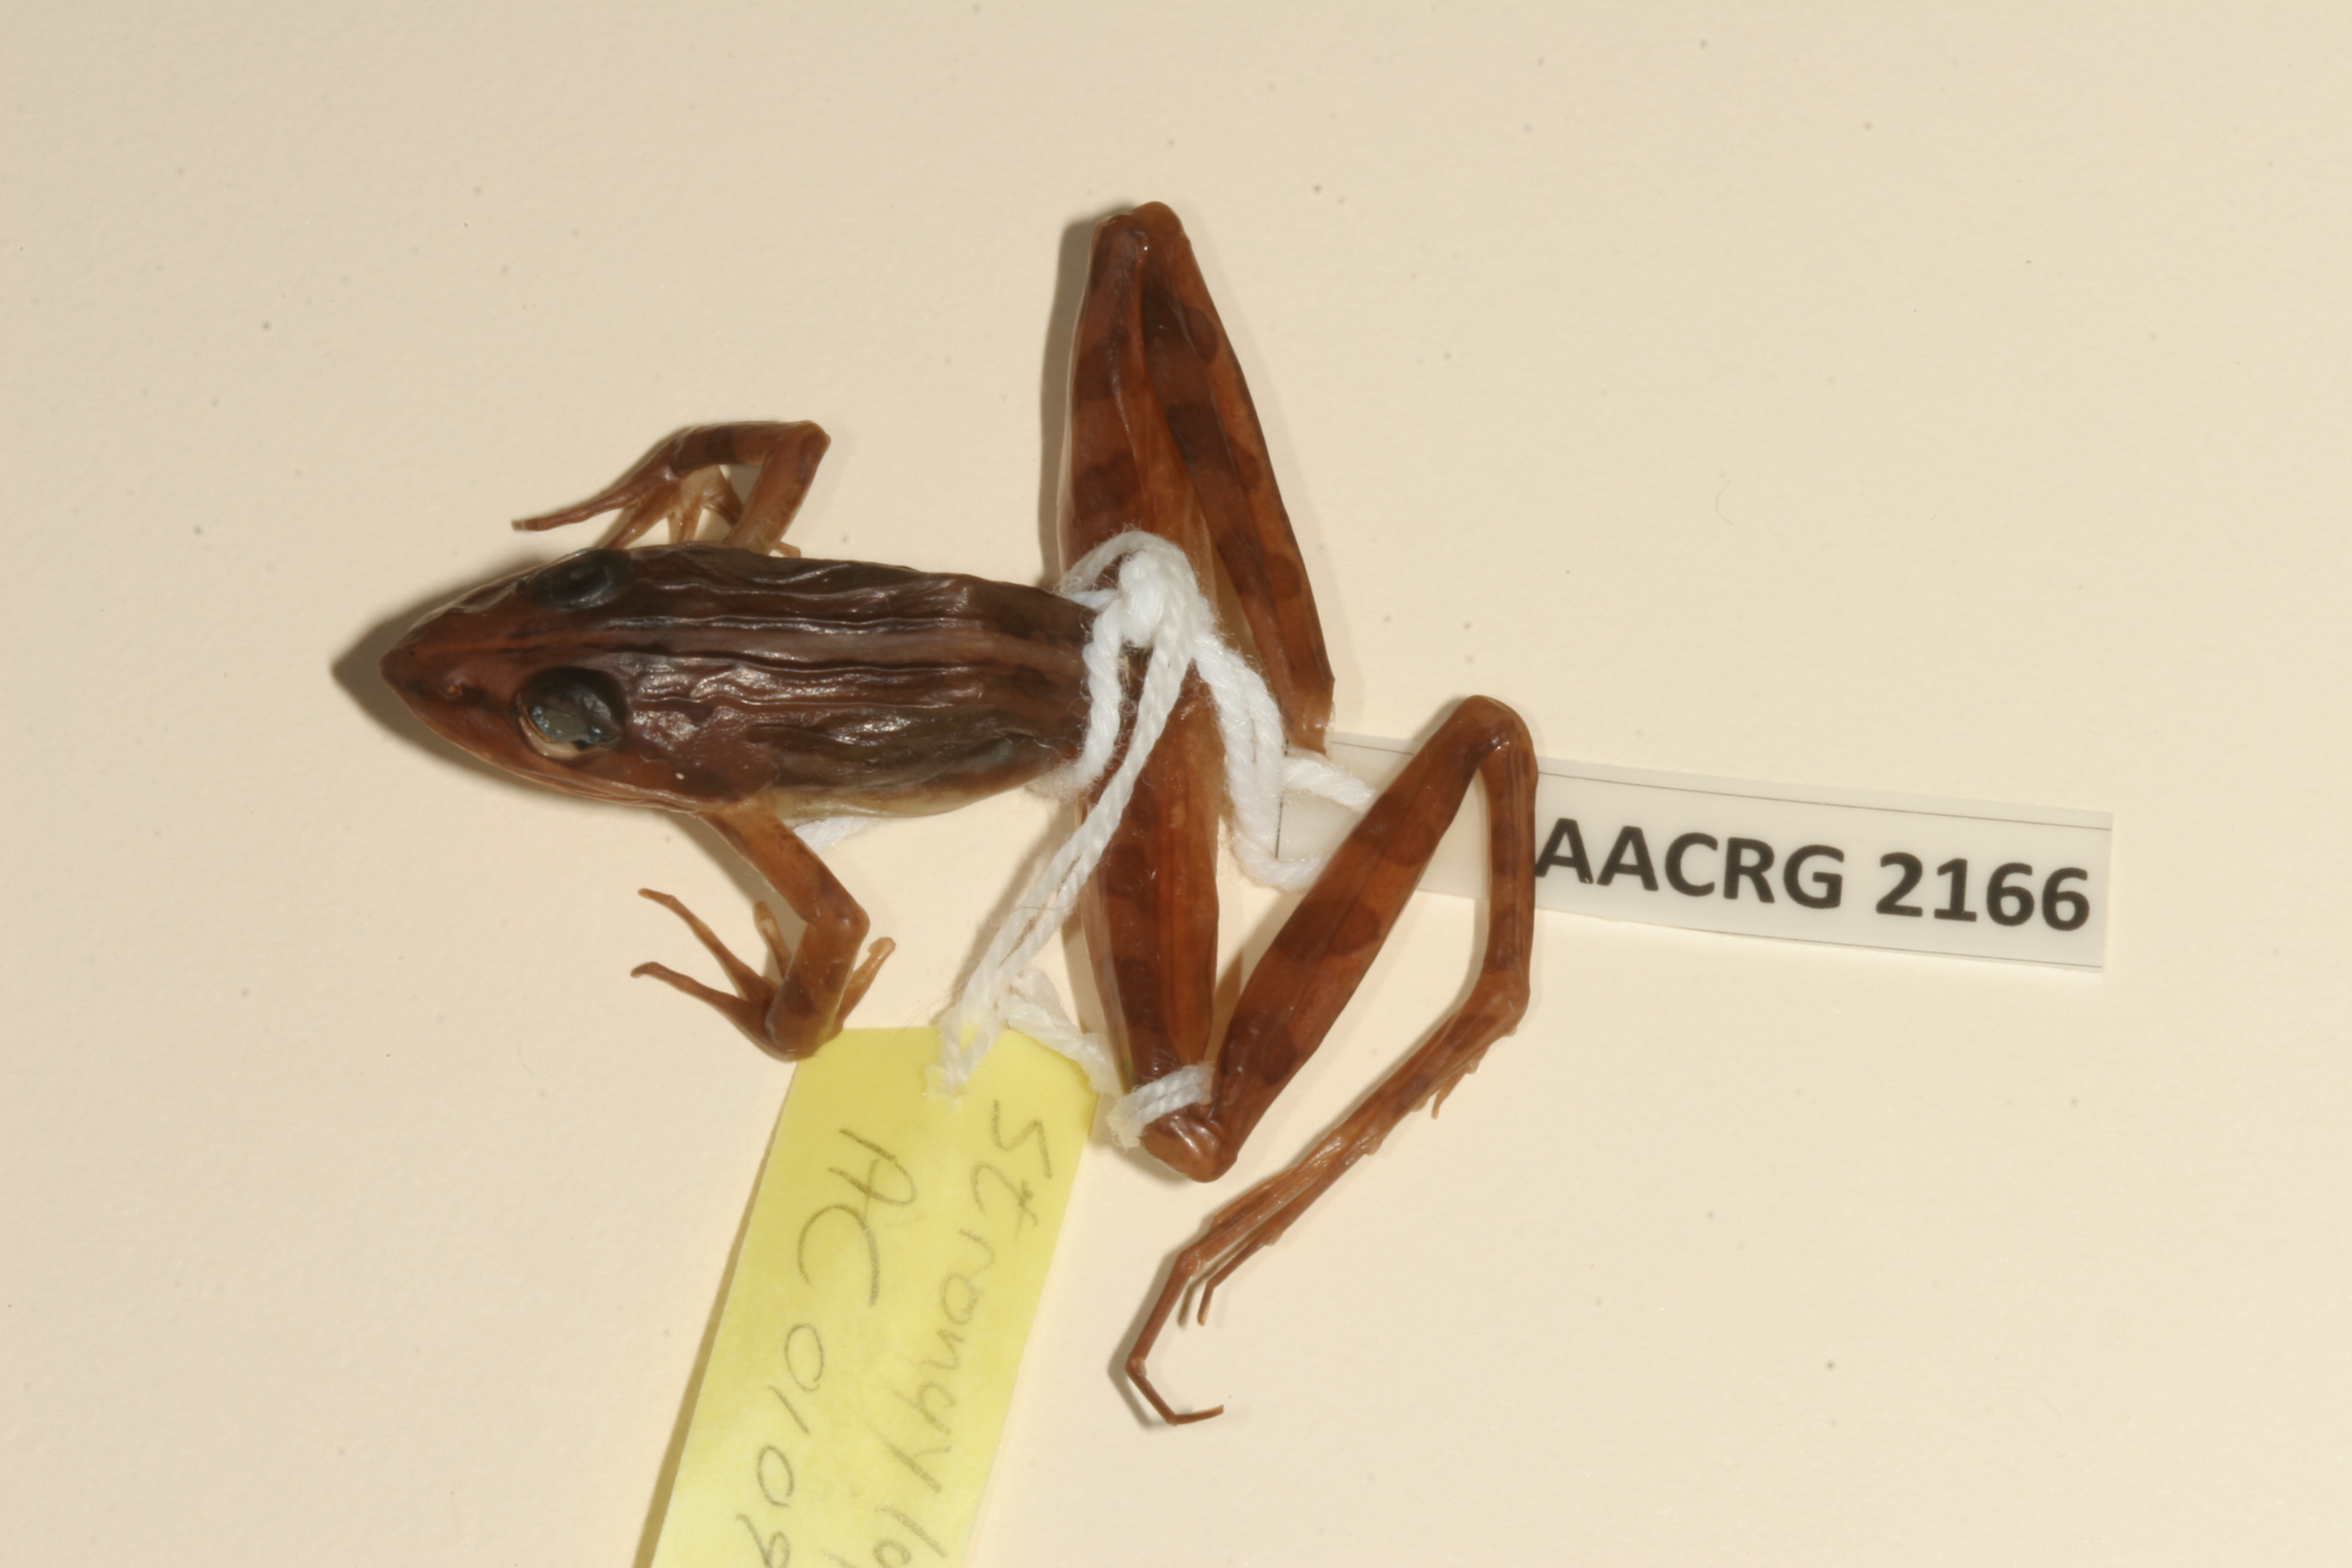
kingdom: Animalia
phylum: Chordata
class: Amphibia
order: Anura
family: Pyxicephalidae
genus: Strongylopus
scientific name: Strongylopus bonaespei
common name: Banded stream frog
